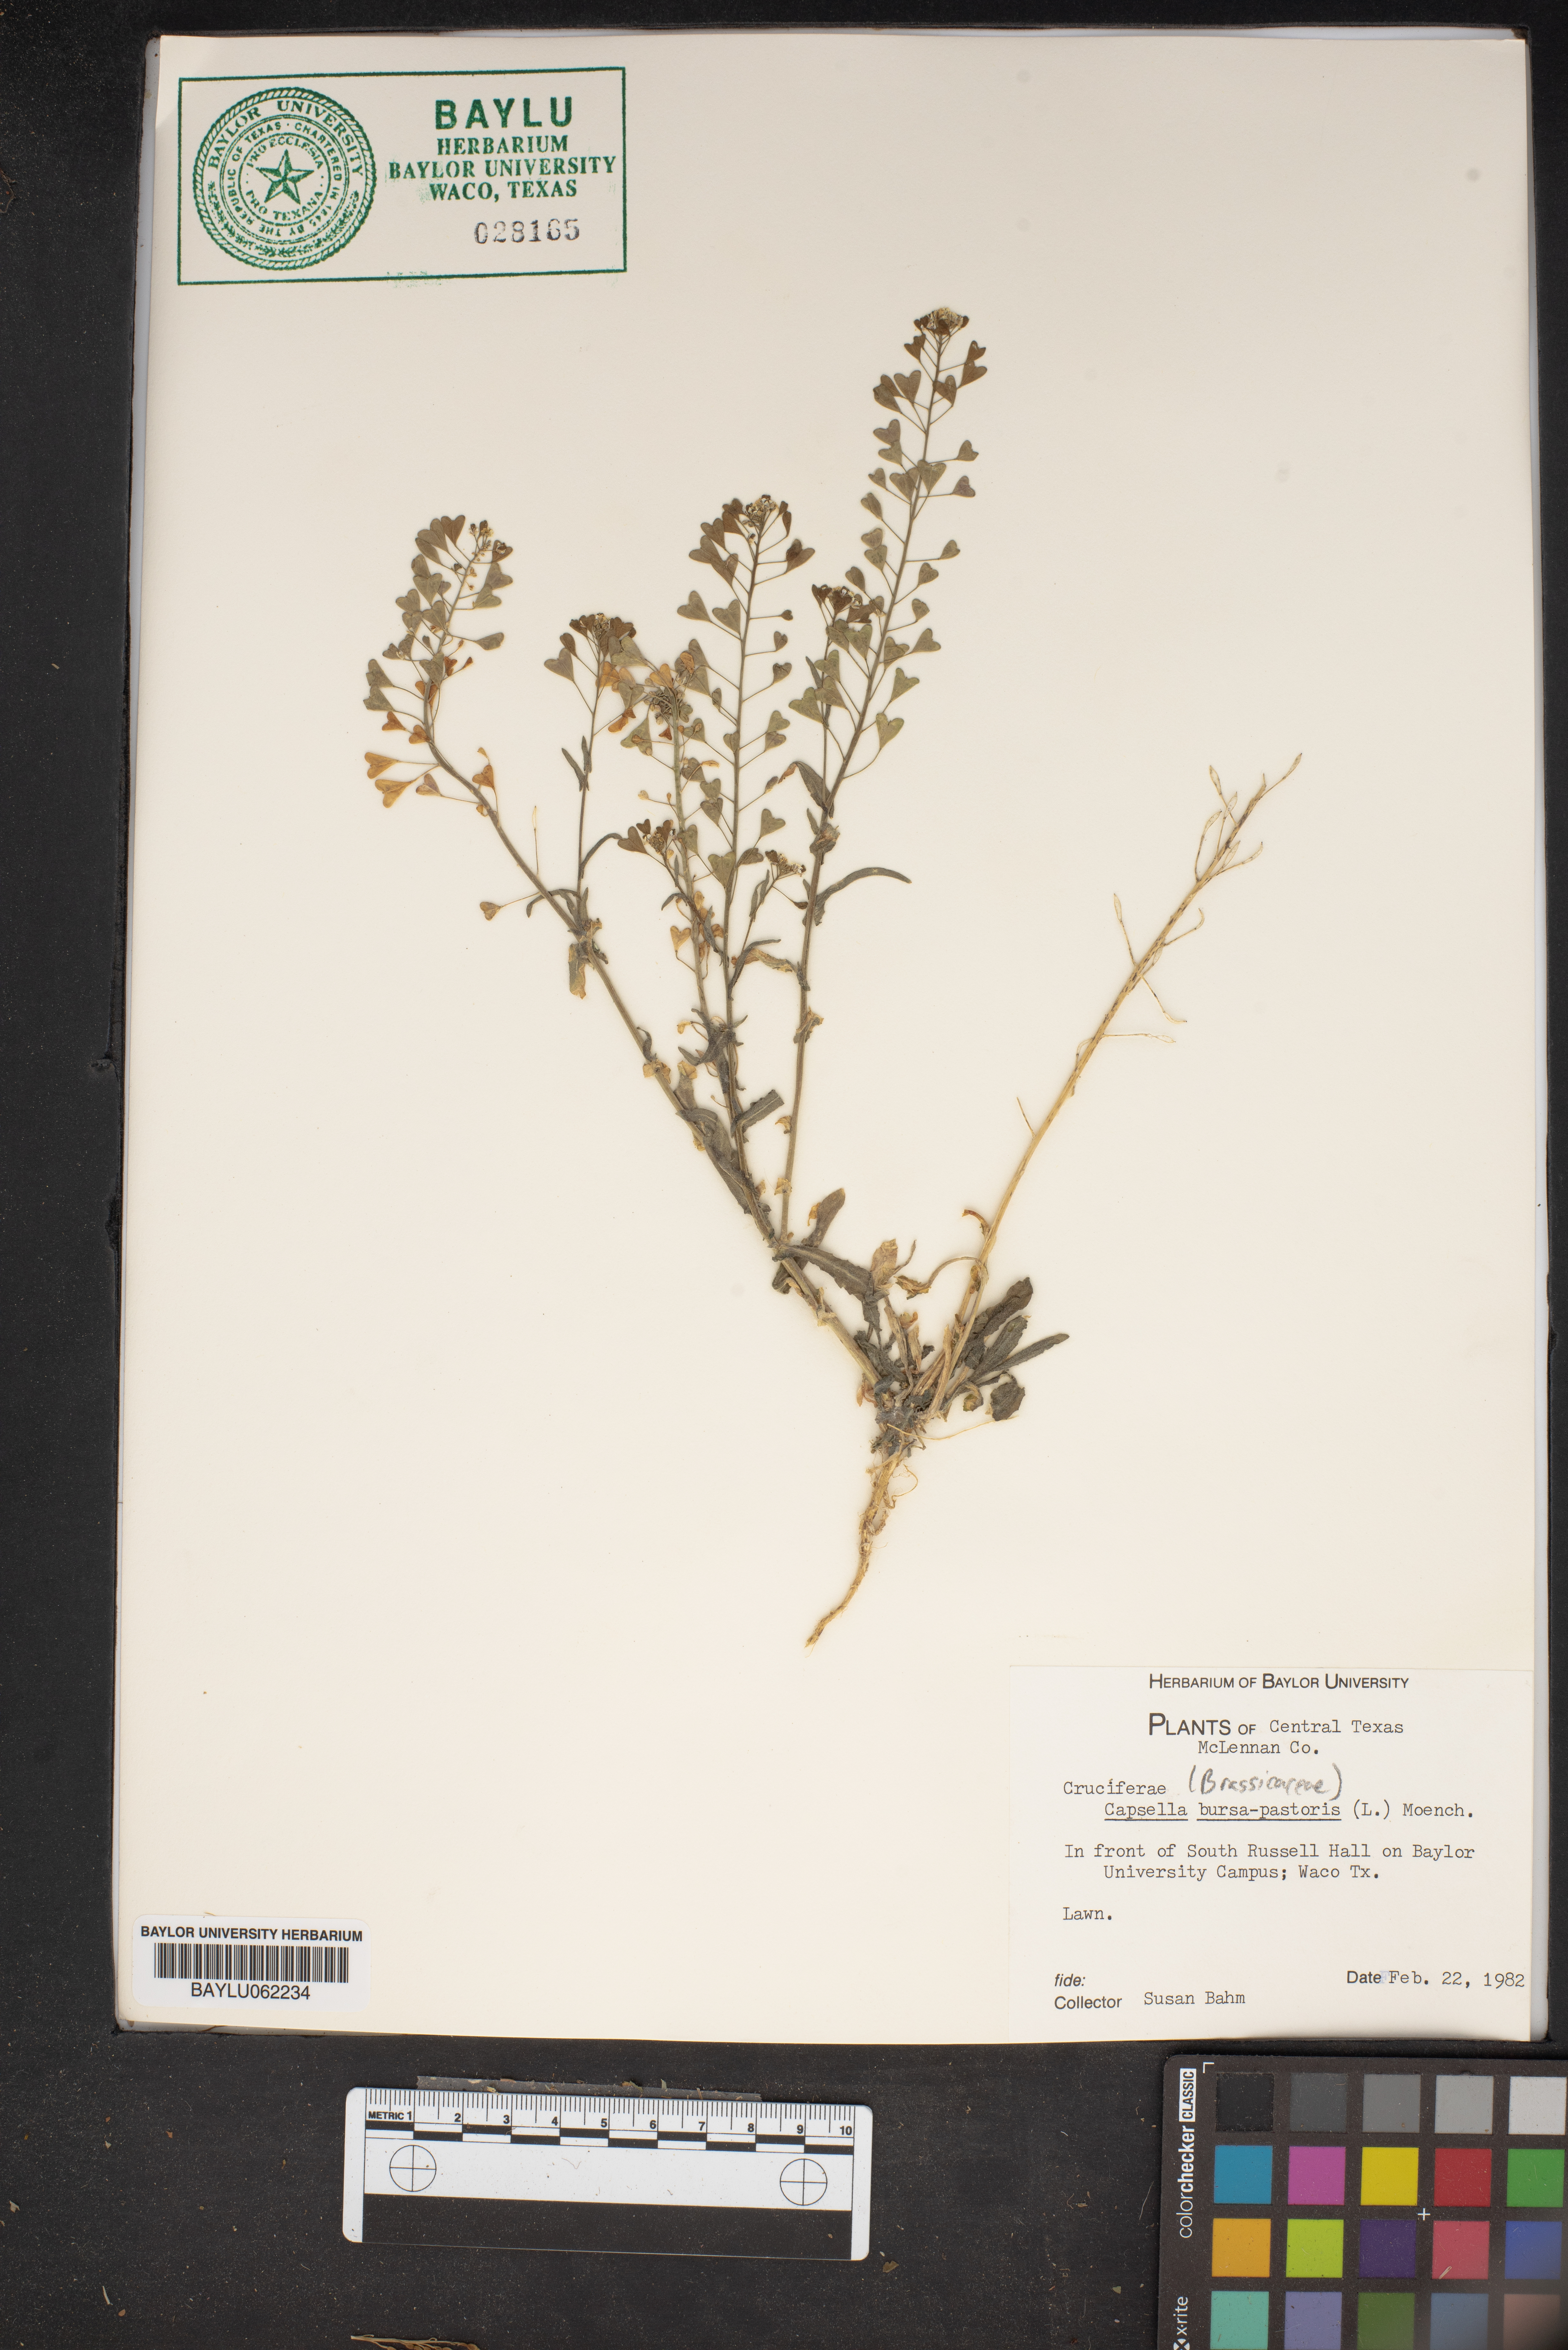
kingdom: Plantae
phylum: Tracheophyta
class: Magnoliopsida
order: Brassicales
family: Brassicaceae
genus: Capsella
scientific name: Capsella bursa-pastoris
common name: Shepherd's purse
